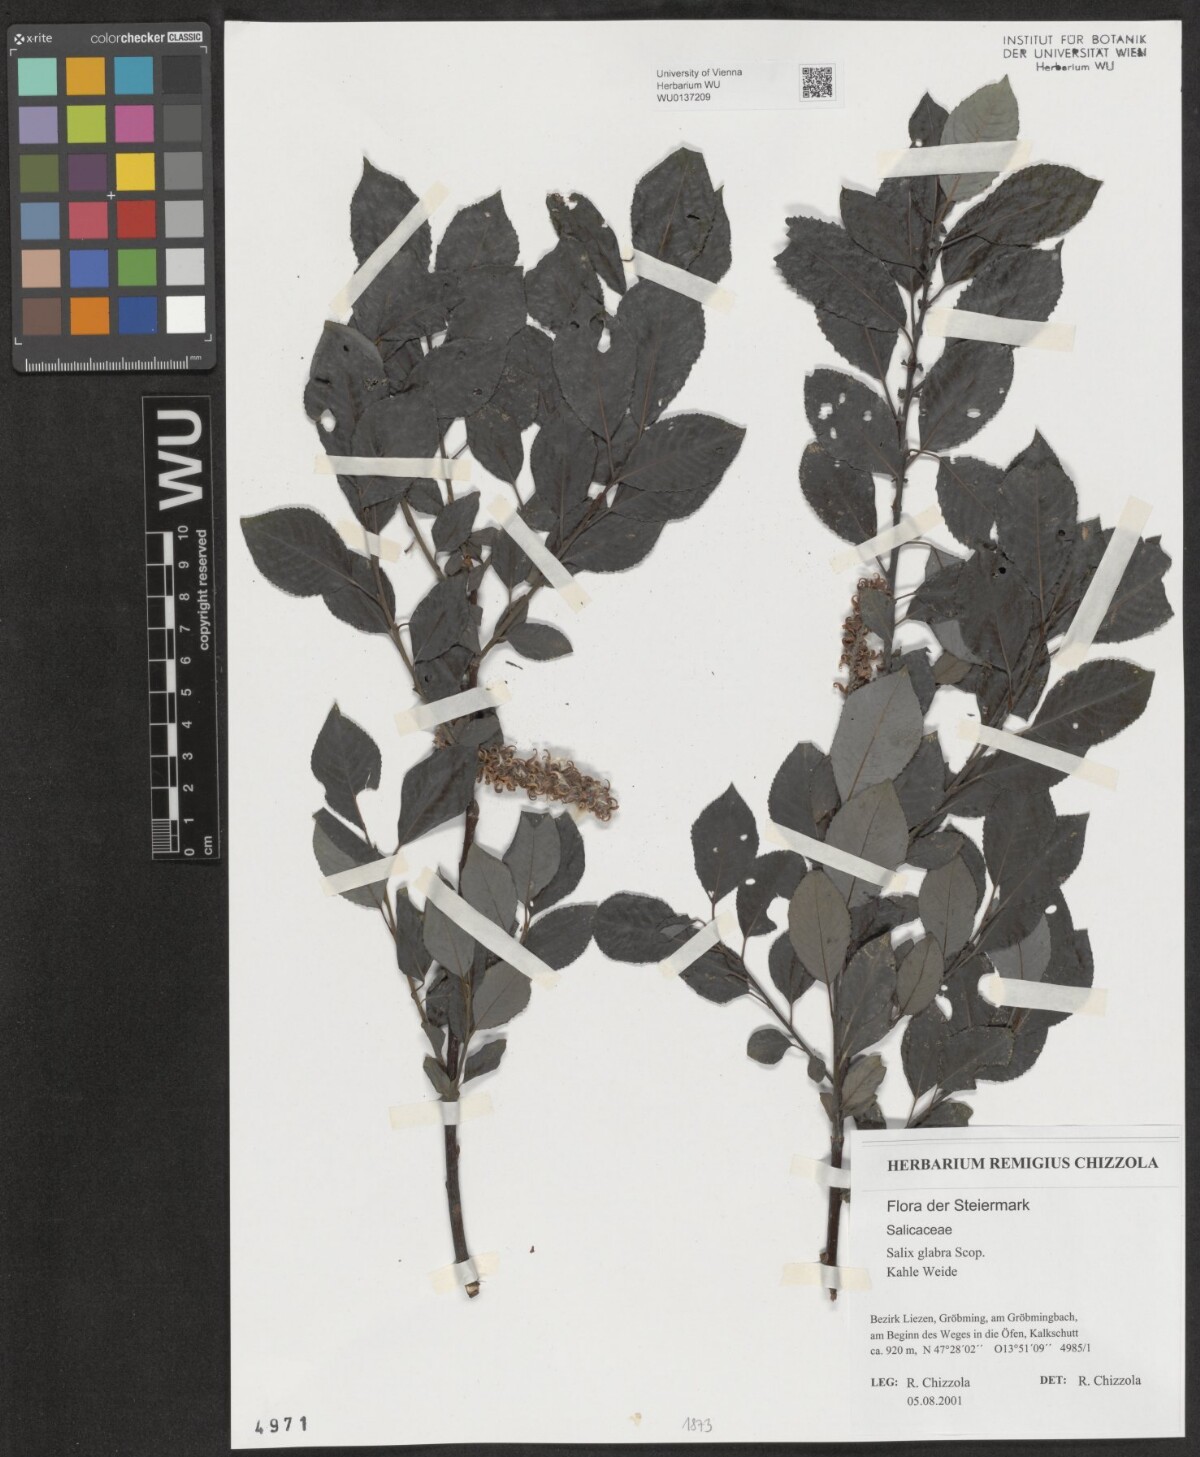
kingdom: Plantae
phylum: Tracheophyta
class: Magnoliopsida
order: Malpighiales
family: Salicaceae
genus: Salix
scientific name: Salix glabra
